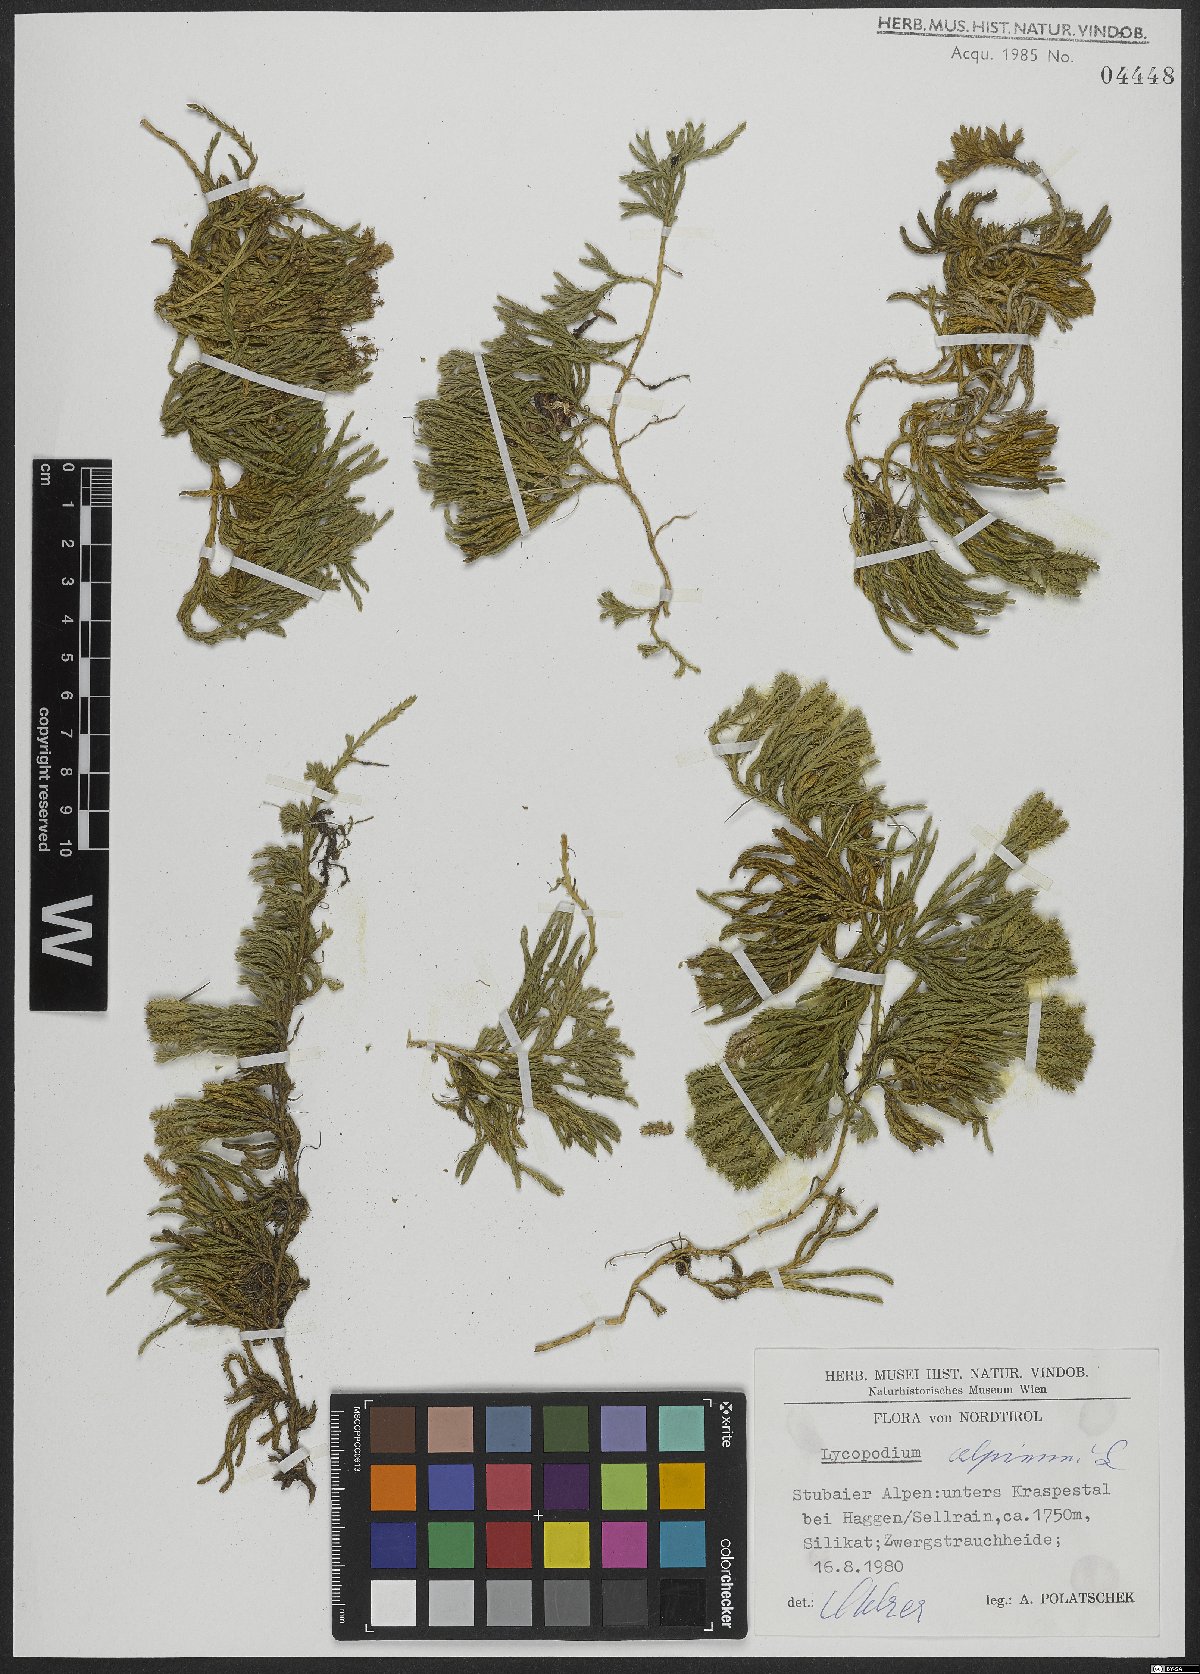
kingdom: Plantae
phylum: Tracheophyta
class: Lycopodiopsida
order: Lycopodiales
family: Lycopodiaceae
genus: Diphasiastrum
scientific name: Diphasiastrum alpinum
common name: Alpine clubmoss
